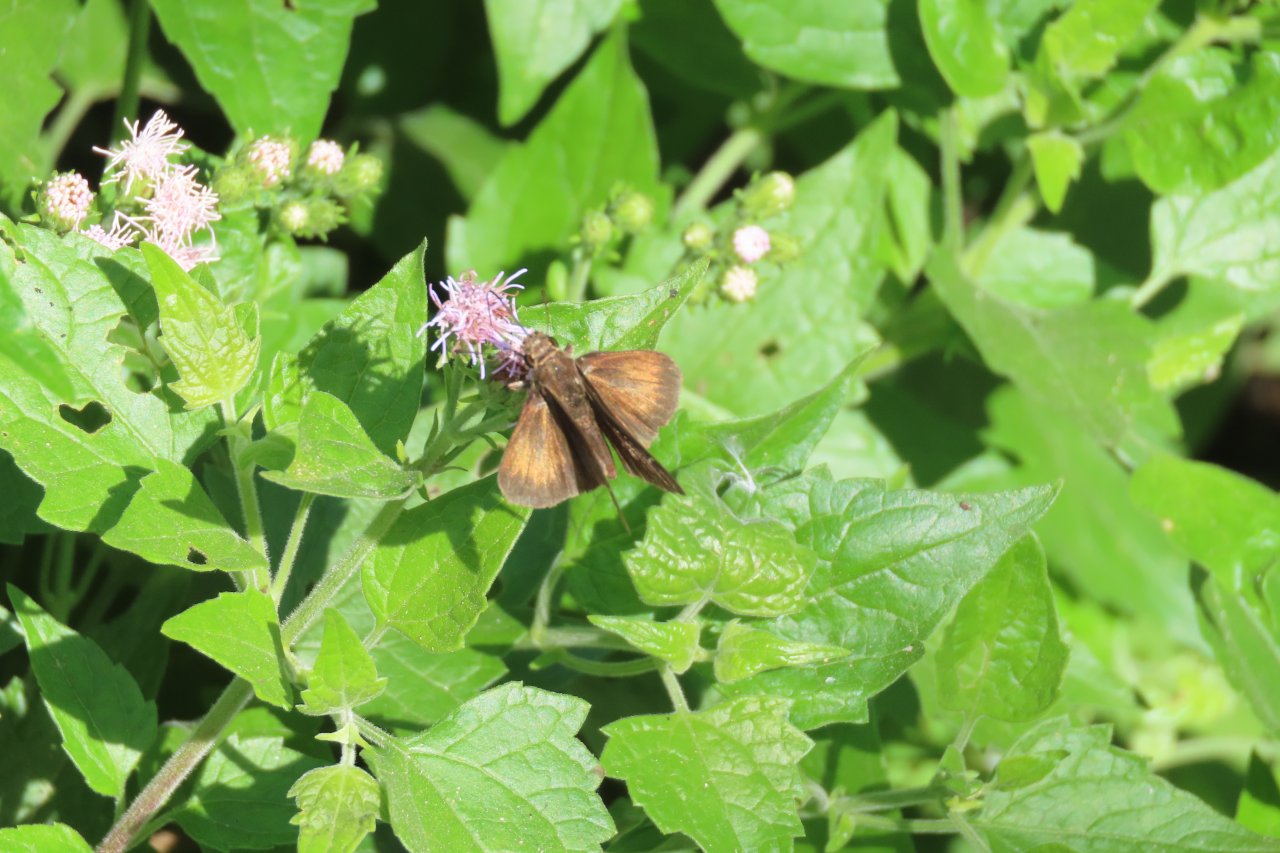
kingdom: Animalia
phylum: Arthropoda
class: Insecta
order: Lepidoptera
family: Hesperiidae
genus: Lerema
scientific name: Lerema accius
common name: Clouded Skipper
